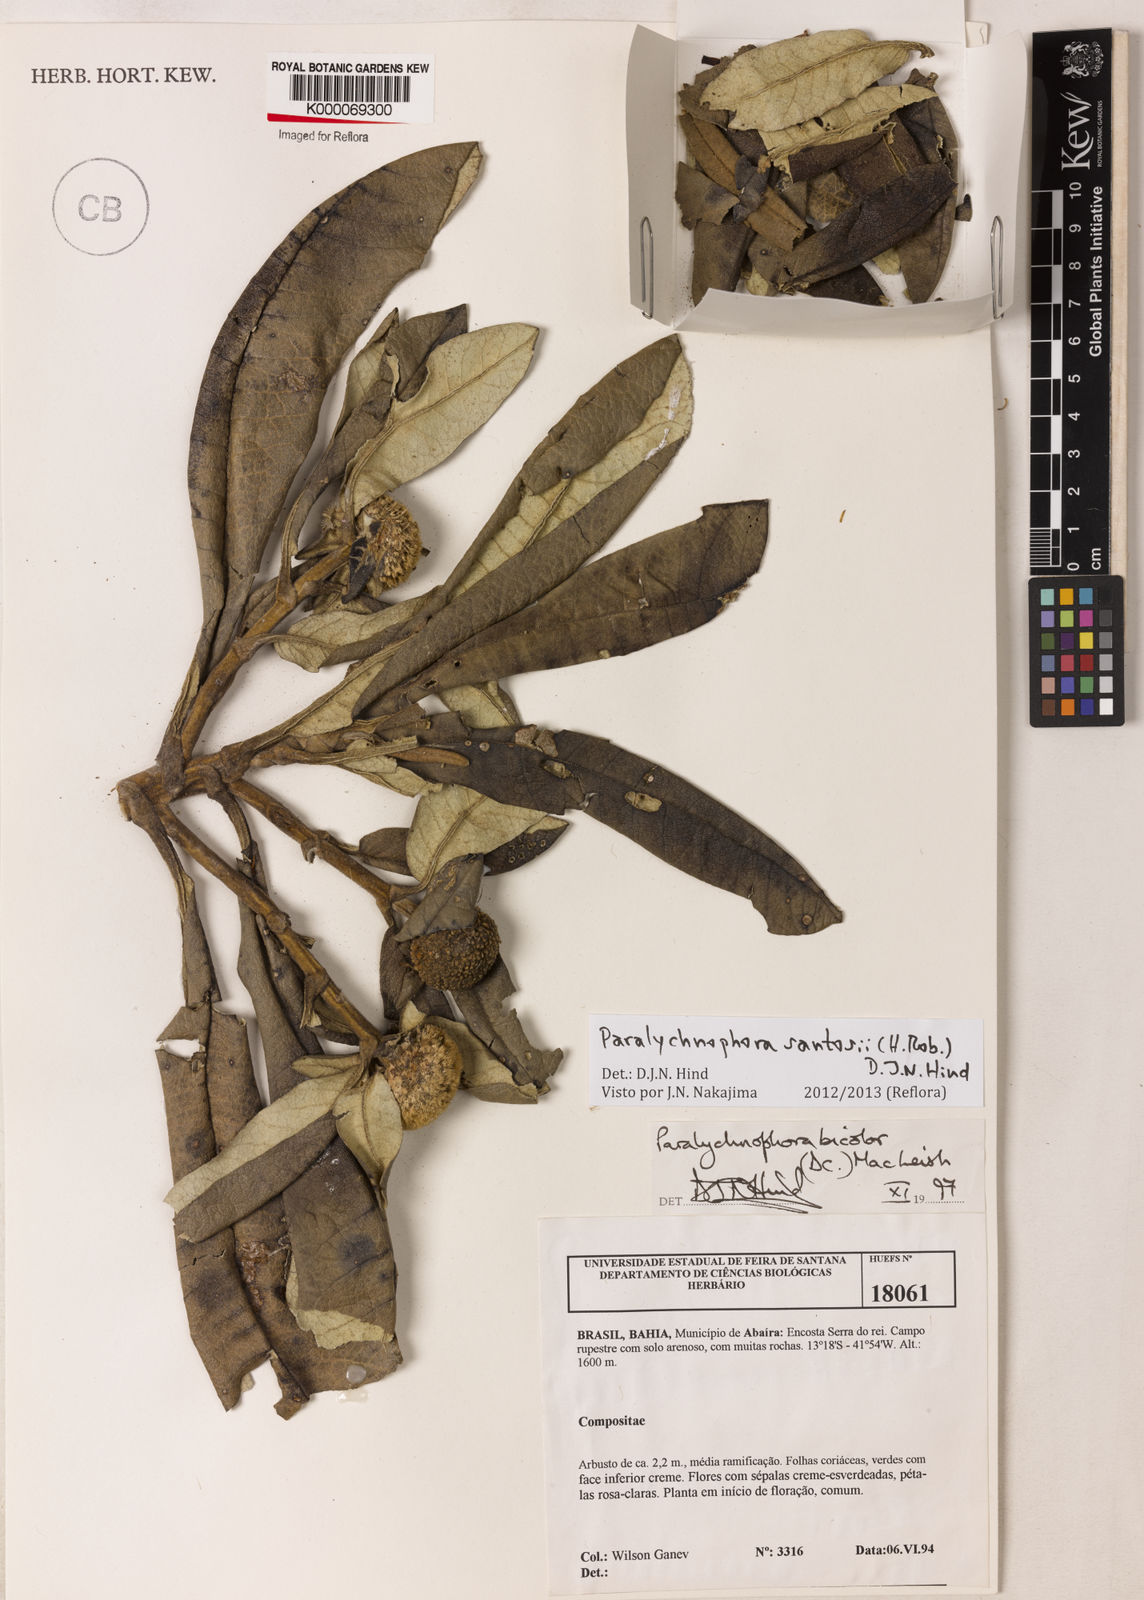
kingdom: Plantae
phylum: Tracheophyta
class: Magnoliopsida
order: Asterales
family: Asteraceae
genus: Paralychnophora
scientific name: Paralychnophora santosii
